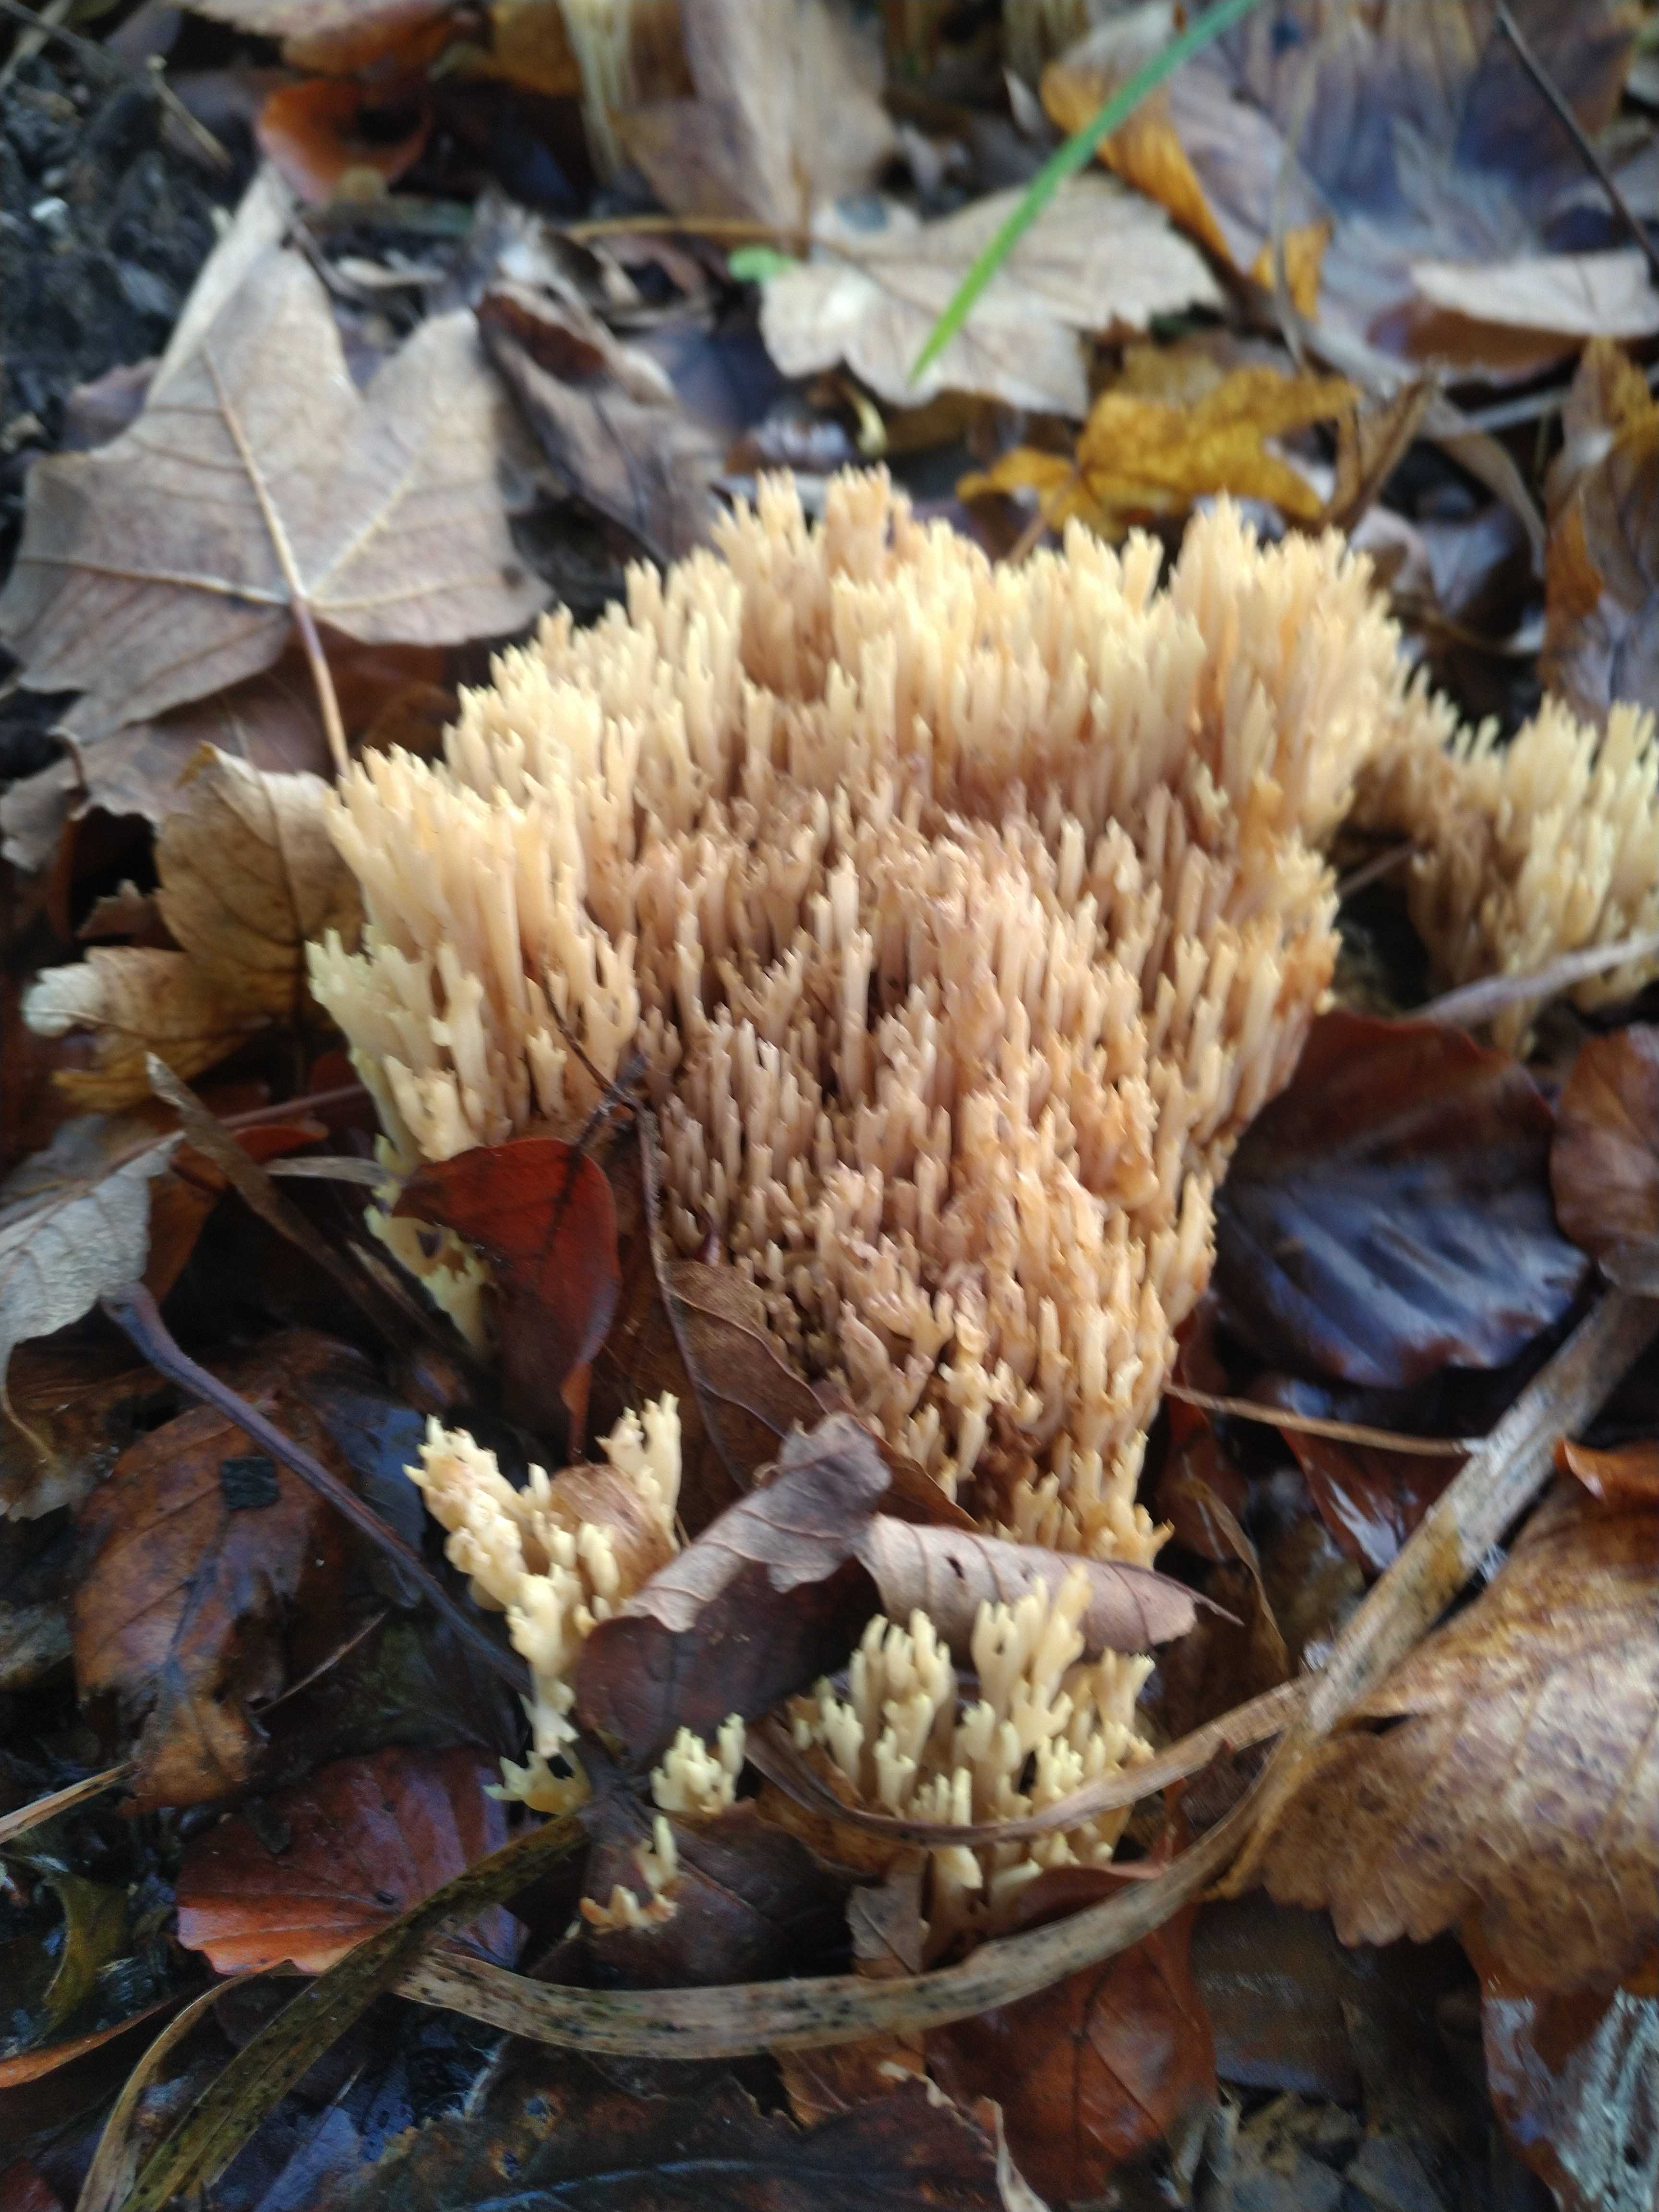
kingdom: Fungi
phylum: Basidiomycota
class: Agaricomycetes
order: Gomphales
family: Gomphaceae
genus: Ramaria
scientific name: Ramaria stricta
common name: rank koralsvamp
